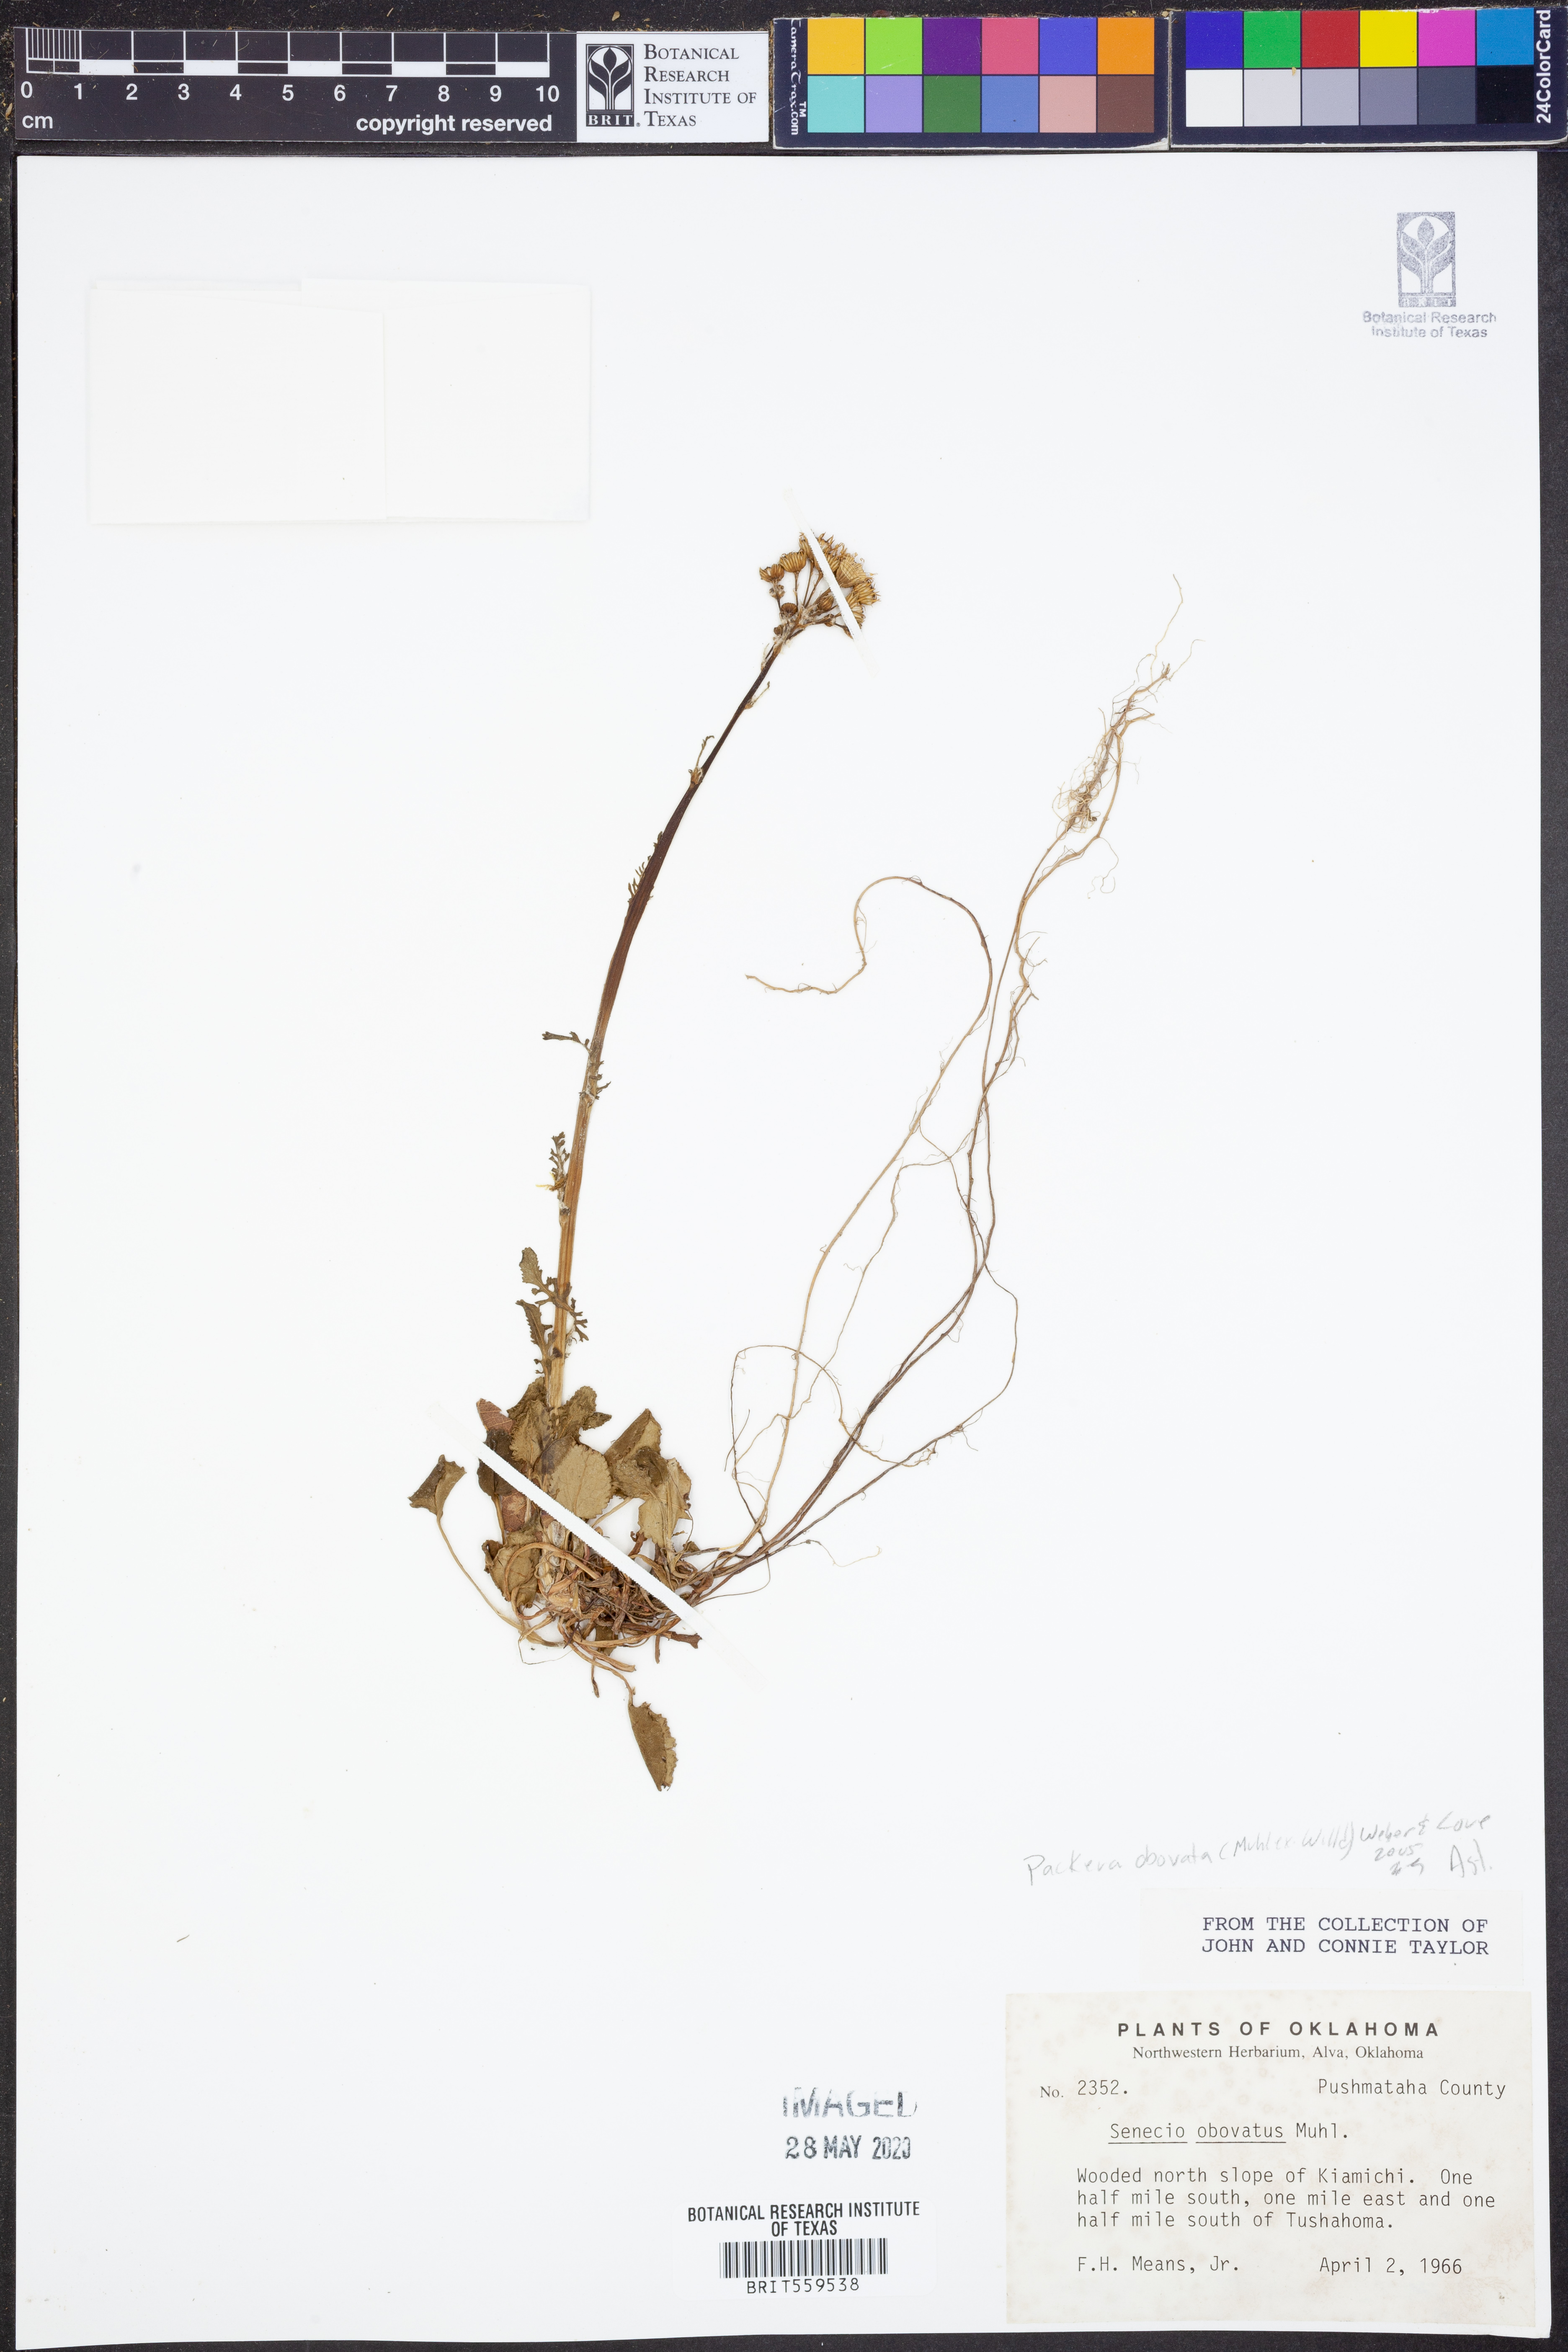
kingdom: Plantae
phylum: Tracheophyta
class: Magnoliopsida
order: Asterales
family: Asteraceae
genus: Packera
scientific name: Packera obovata
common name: Round-leaf ragwort
